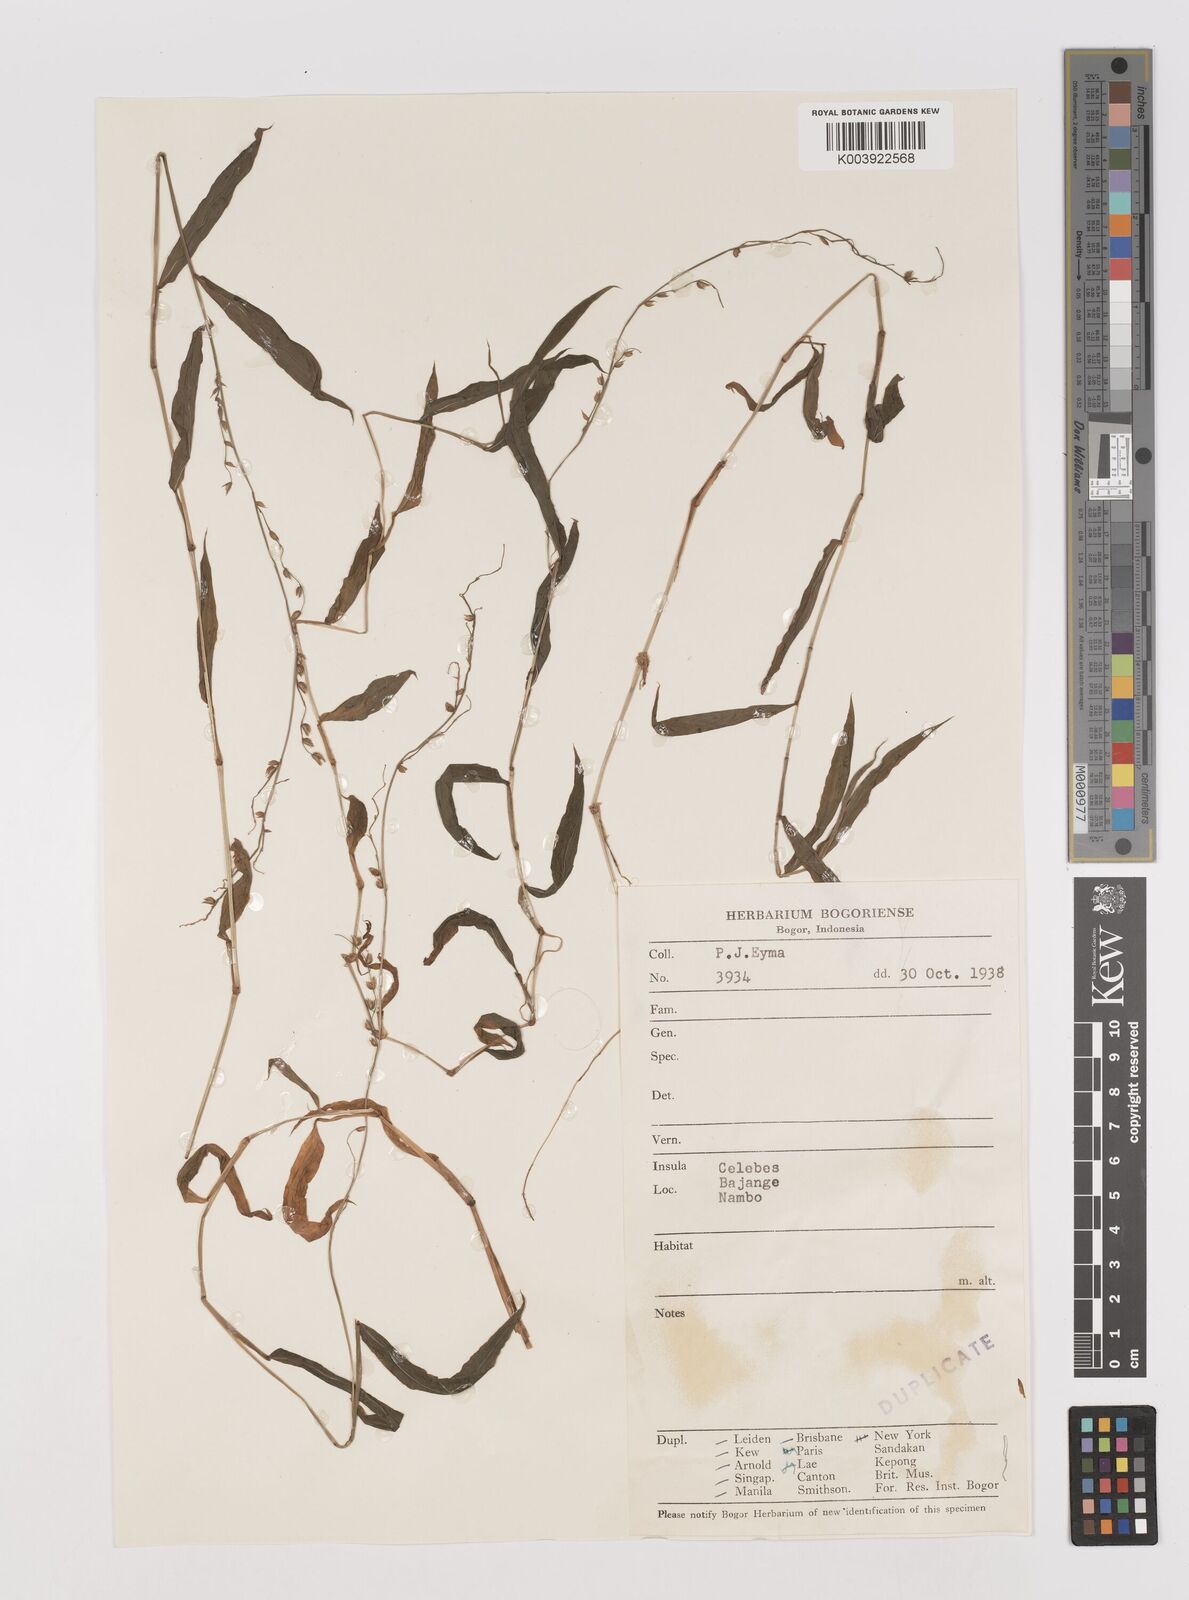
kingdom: Plantae
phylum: Tracheophyta
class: Liliopsida
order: Poales
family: Poaceae
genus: Pseudechinolaena
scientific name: Pseudechinolaena polystachya
